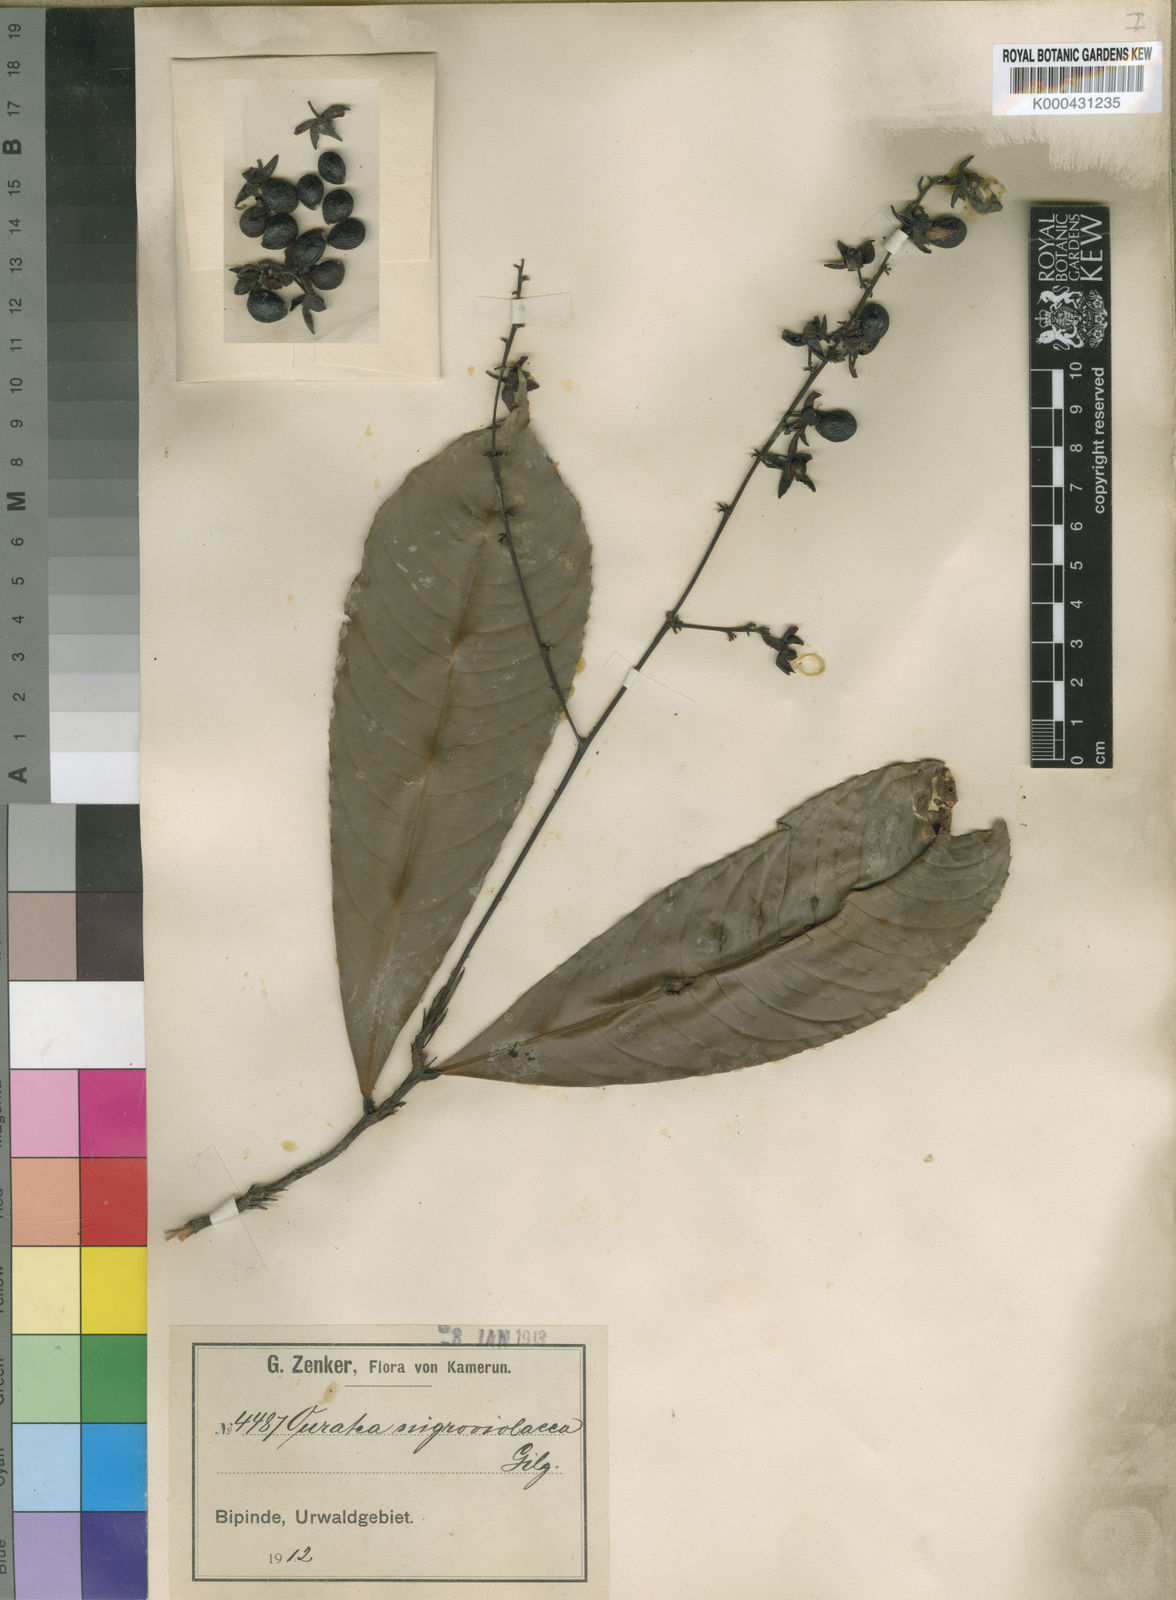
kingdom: Plantae
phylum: Tracheophyta
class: Magnoliopsida
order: Malpighiales
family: Ochnaceae
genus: Campylospermum
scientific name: Campylospermum calanthum
